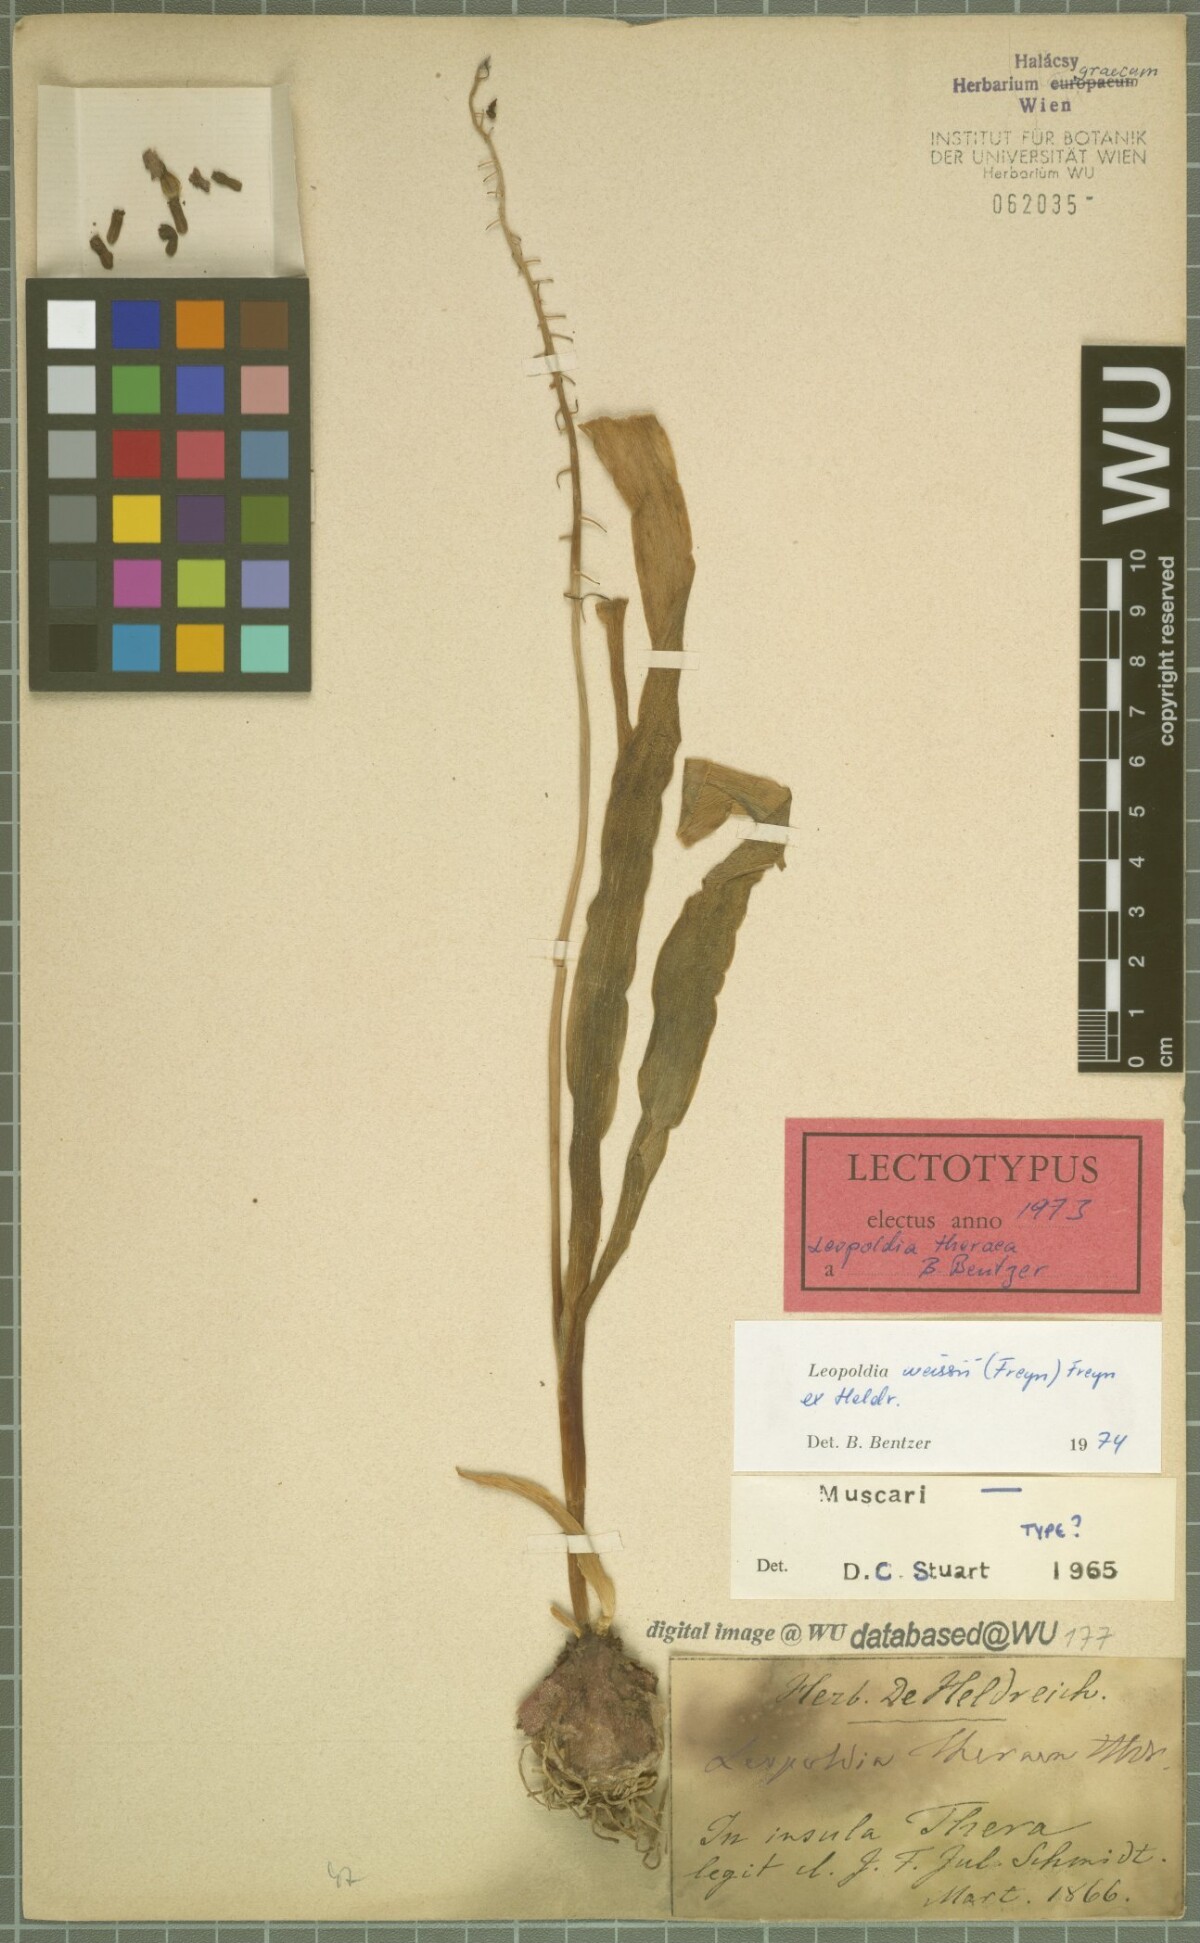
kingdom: Plantae
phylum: Tracheophyta
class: Liliopsida
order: Asparagales
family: Asparagaceae
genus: Muscari
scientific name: Muscari weissii
